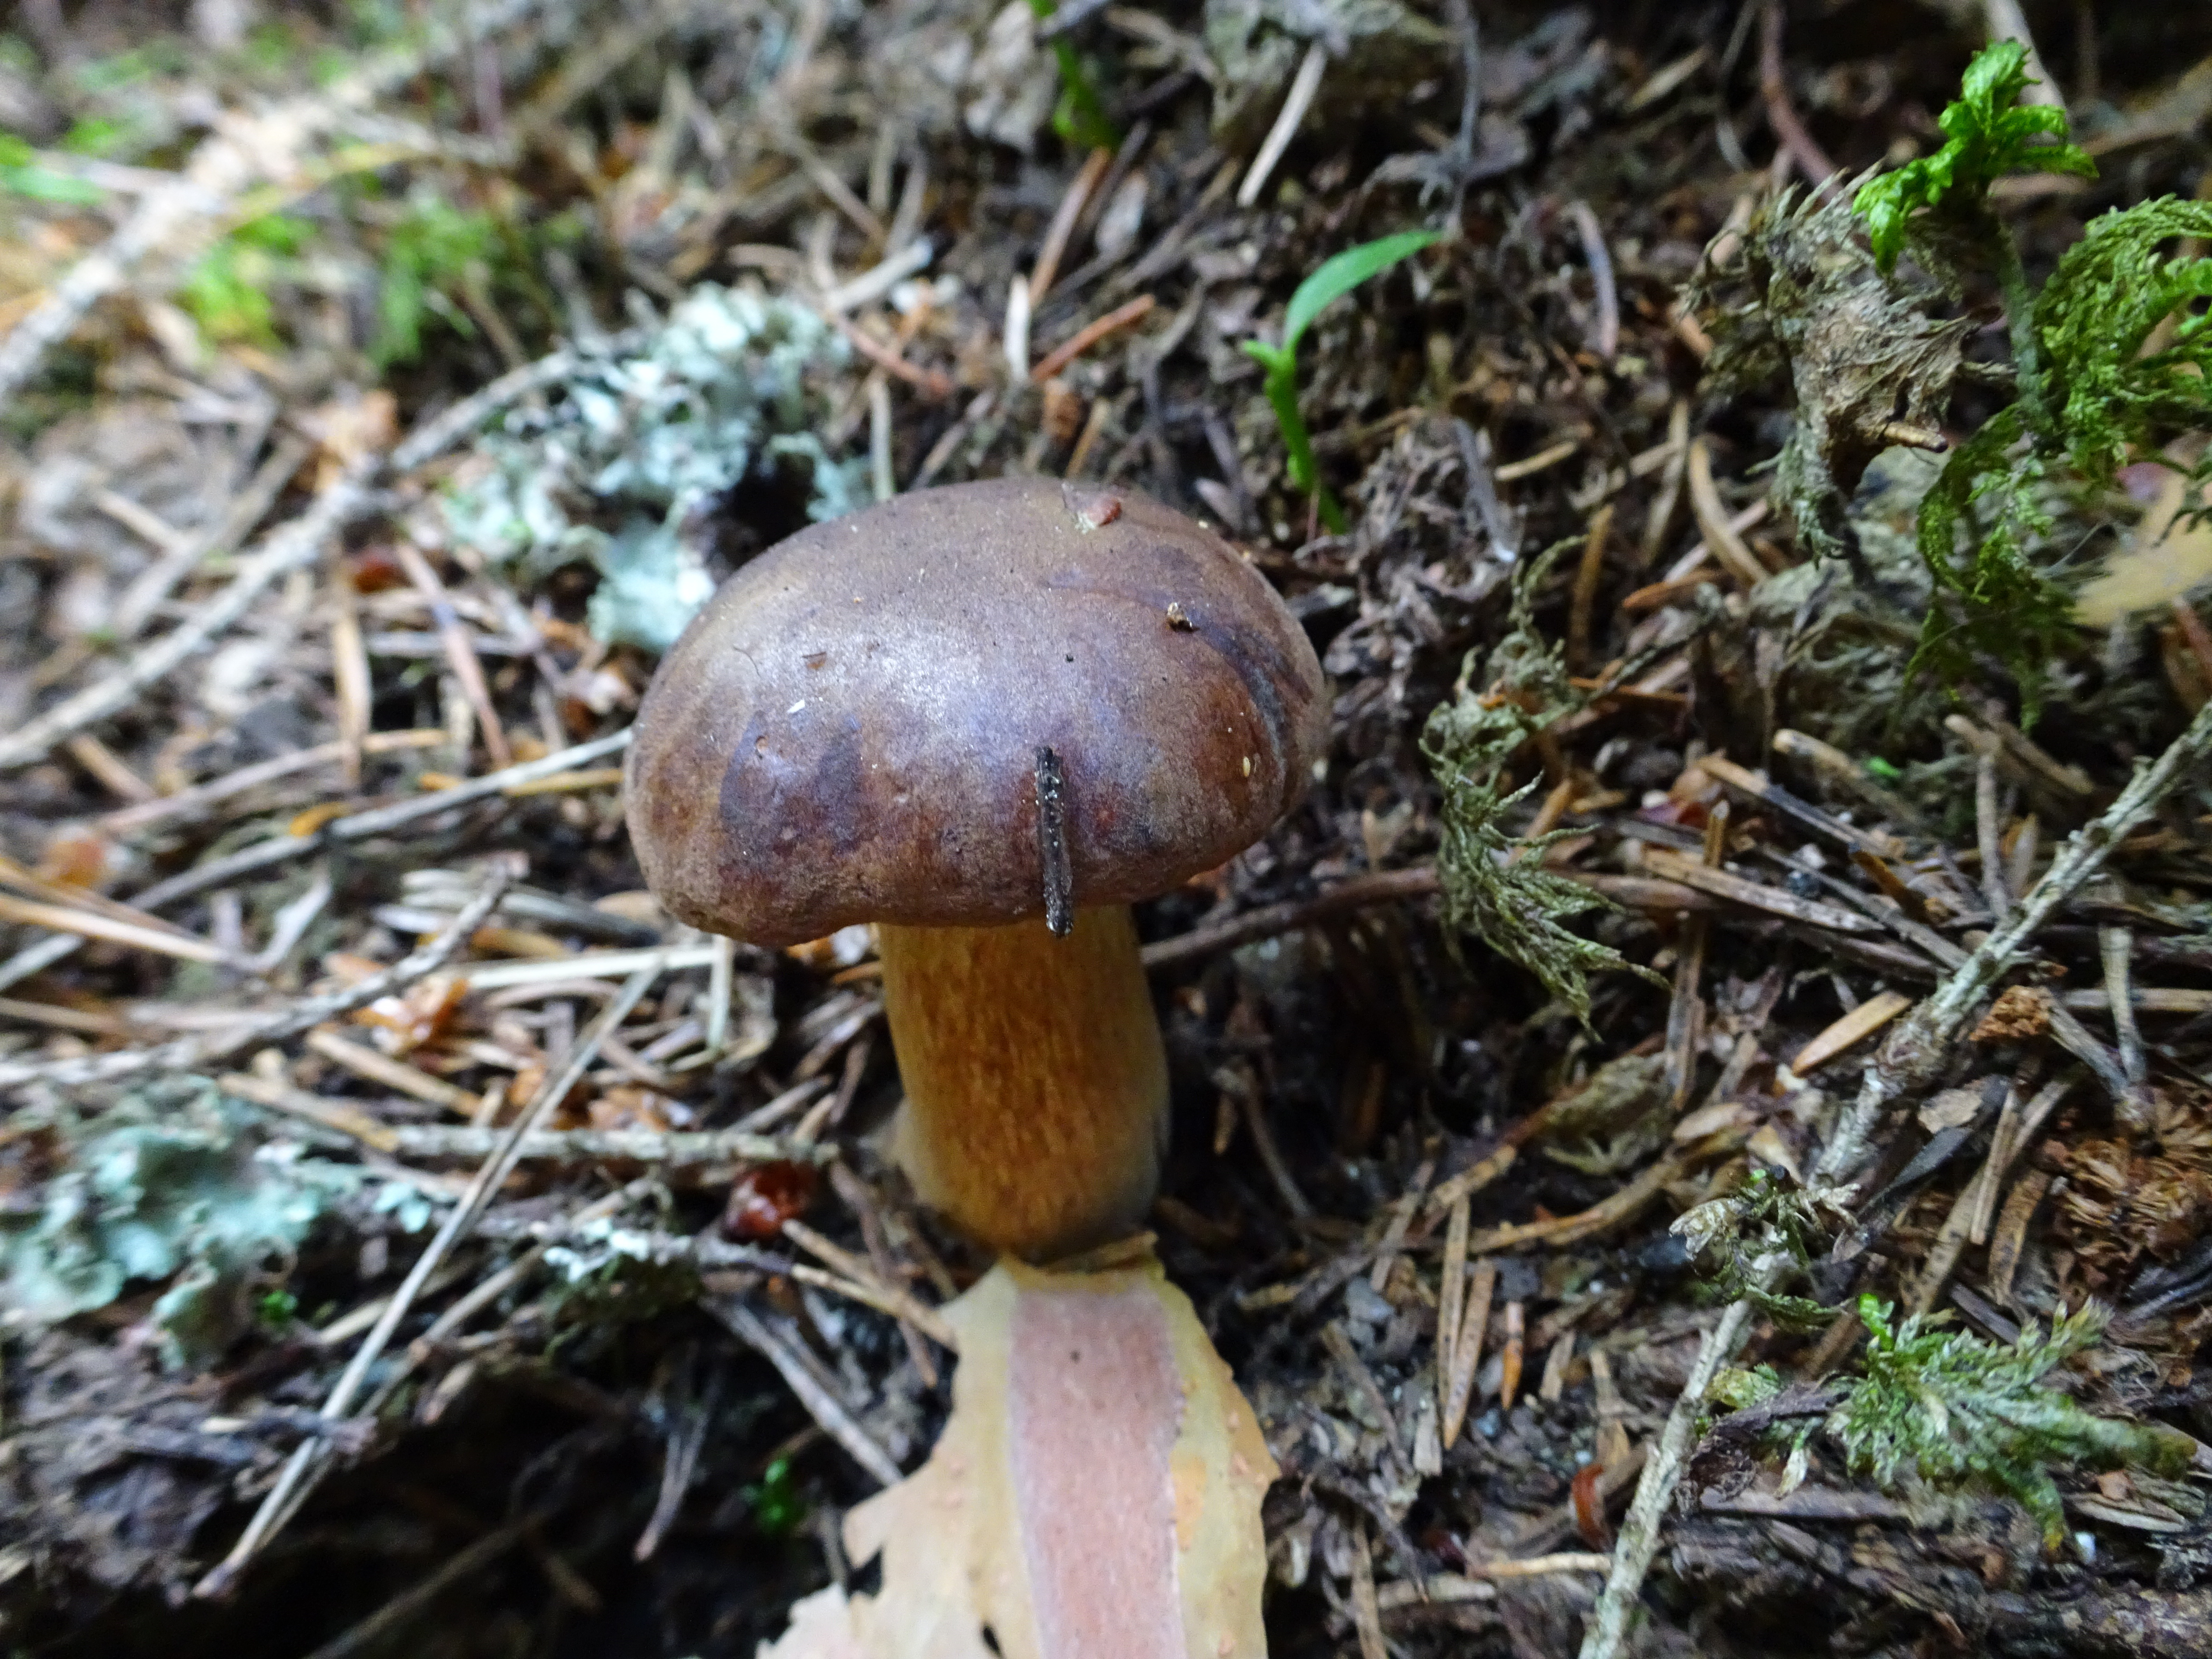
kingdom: Fungi
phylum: Basidiomycota
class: Agaricomycetes
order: Boletales
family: Boletaceae
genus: Imleria
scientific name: Imleria badia
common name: Bay bolete
